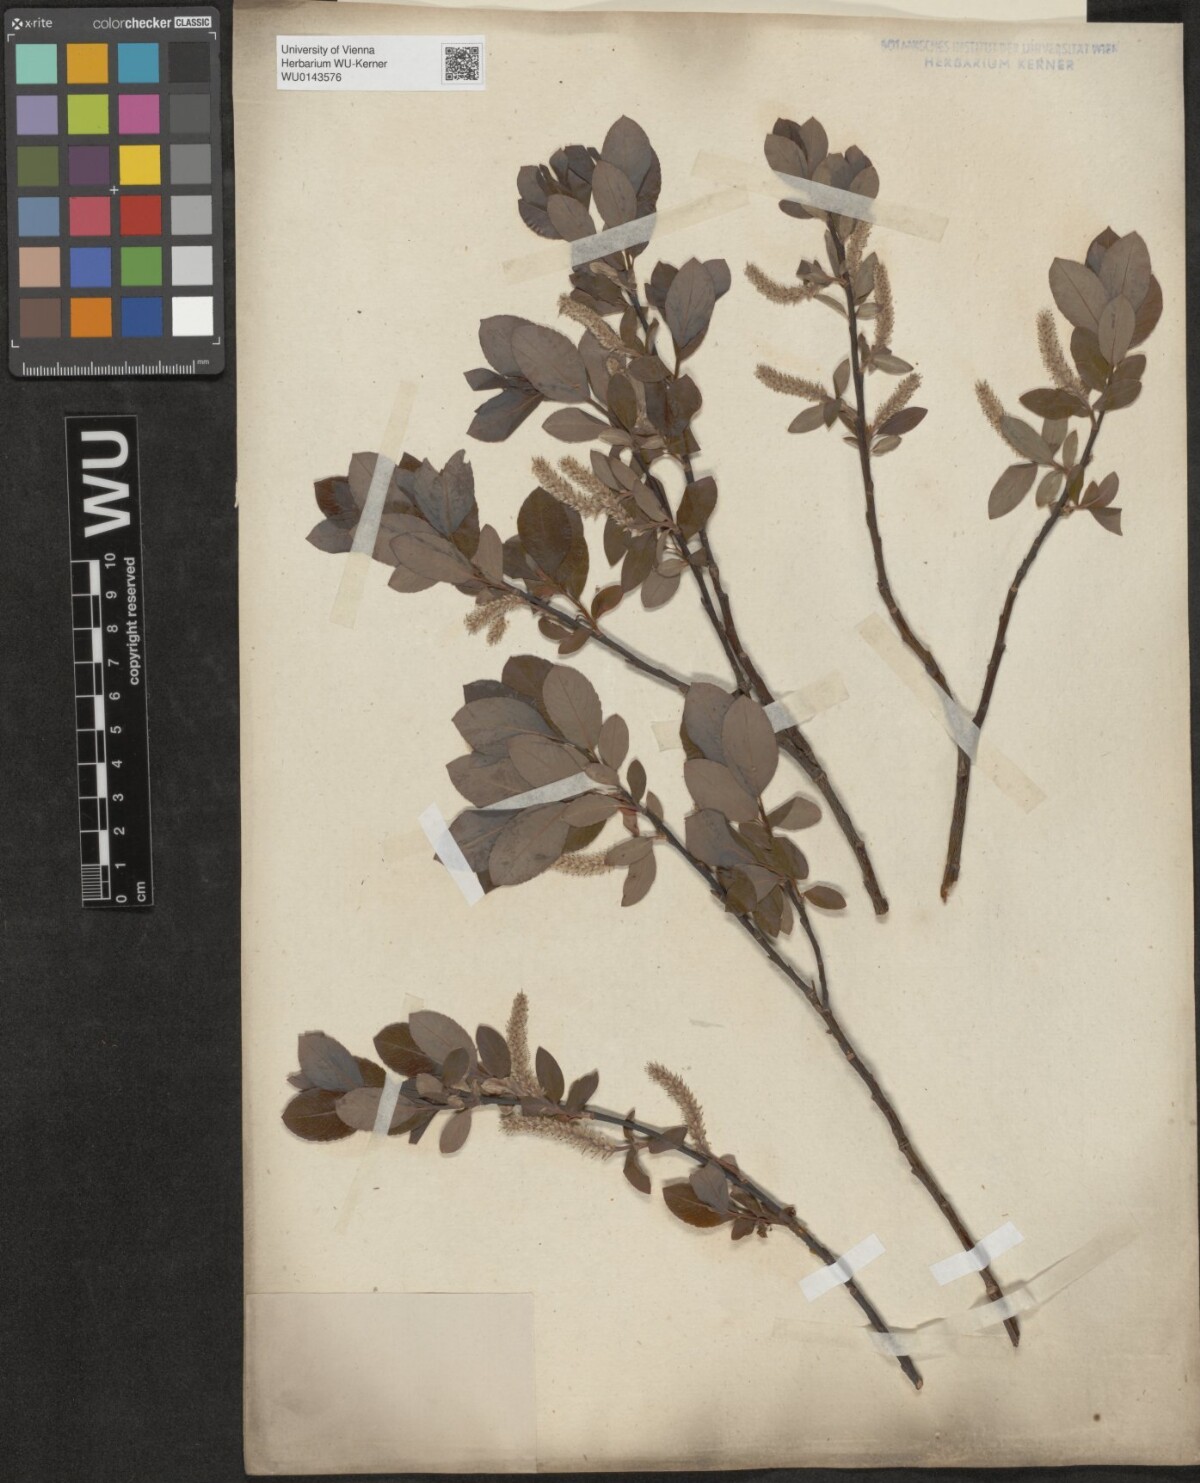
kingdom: Plantae
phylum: Tracheophyta
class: Magnoliopsida
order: Malpighiales
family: Salicaceae
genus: Salix
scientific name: Salix waldsteiniana
